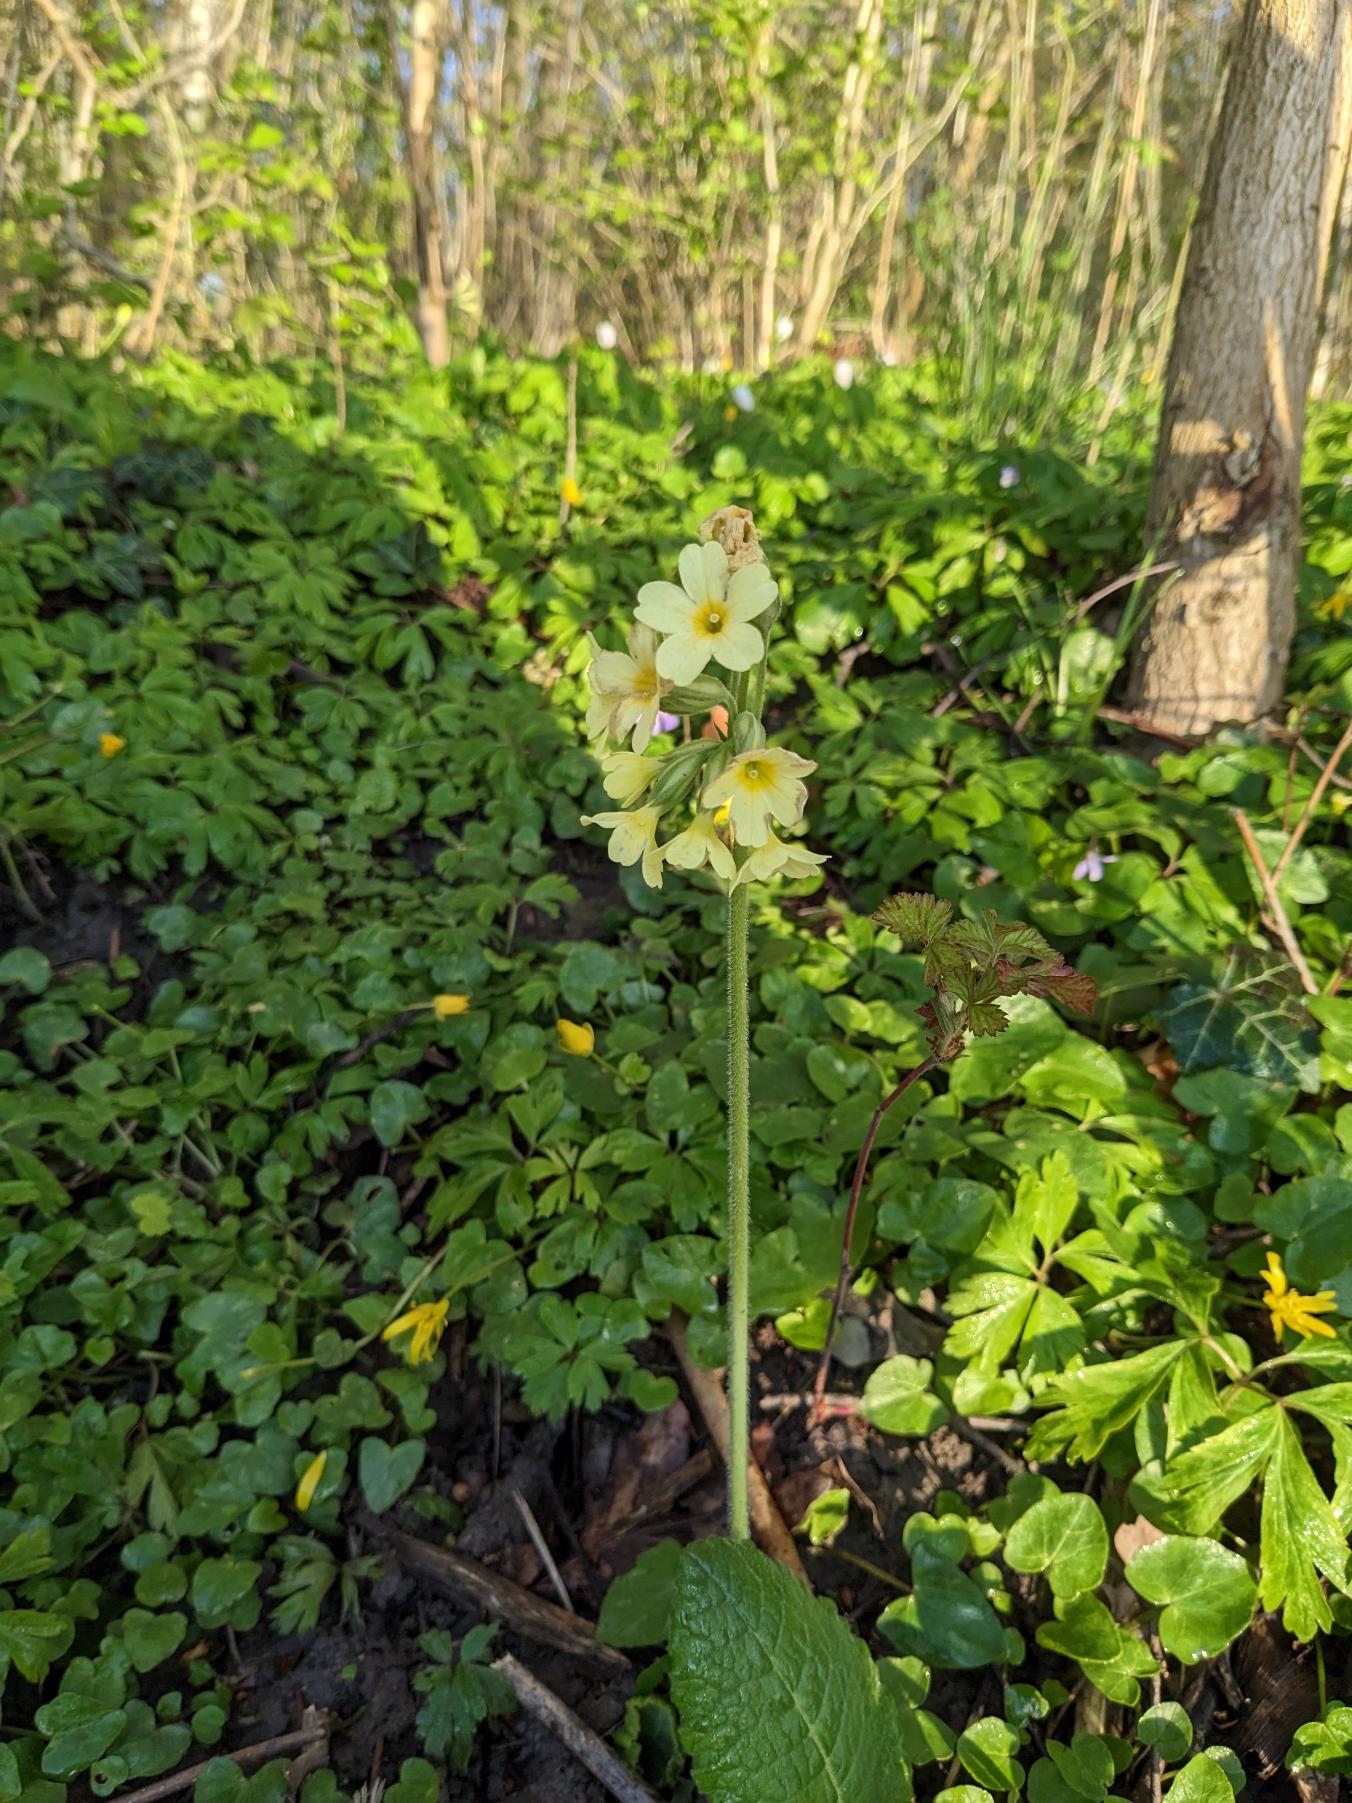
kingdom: Plantae
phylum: Tracheophyta
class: Magnoliopsida
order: Ericales
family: Primulaceae
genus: Primula
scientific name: Primula elatior
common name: Fladkravet kodriver
